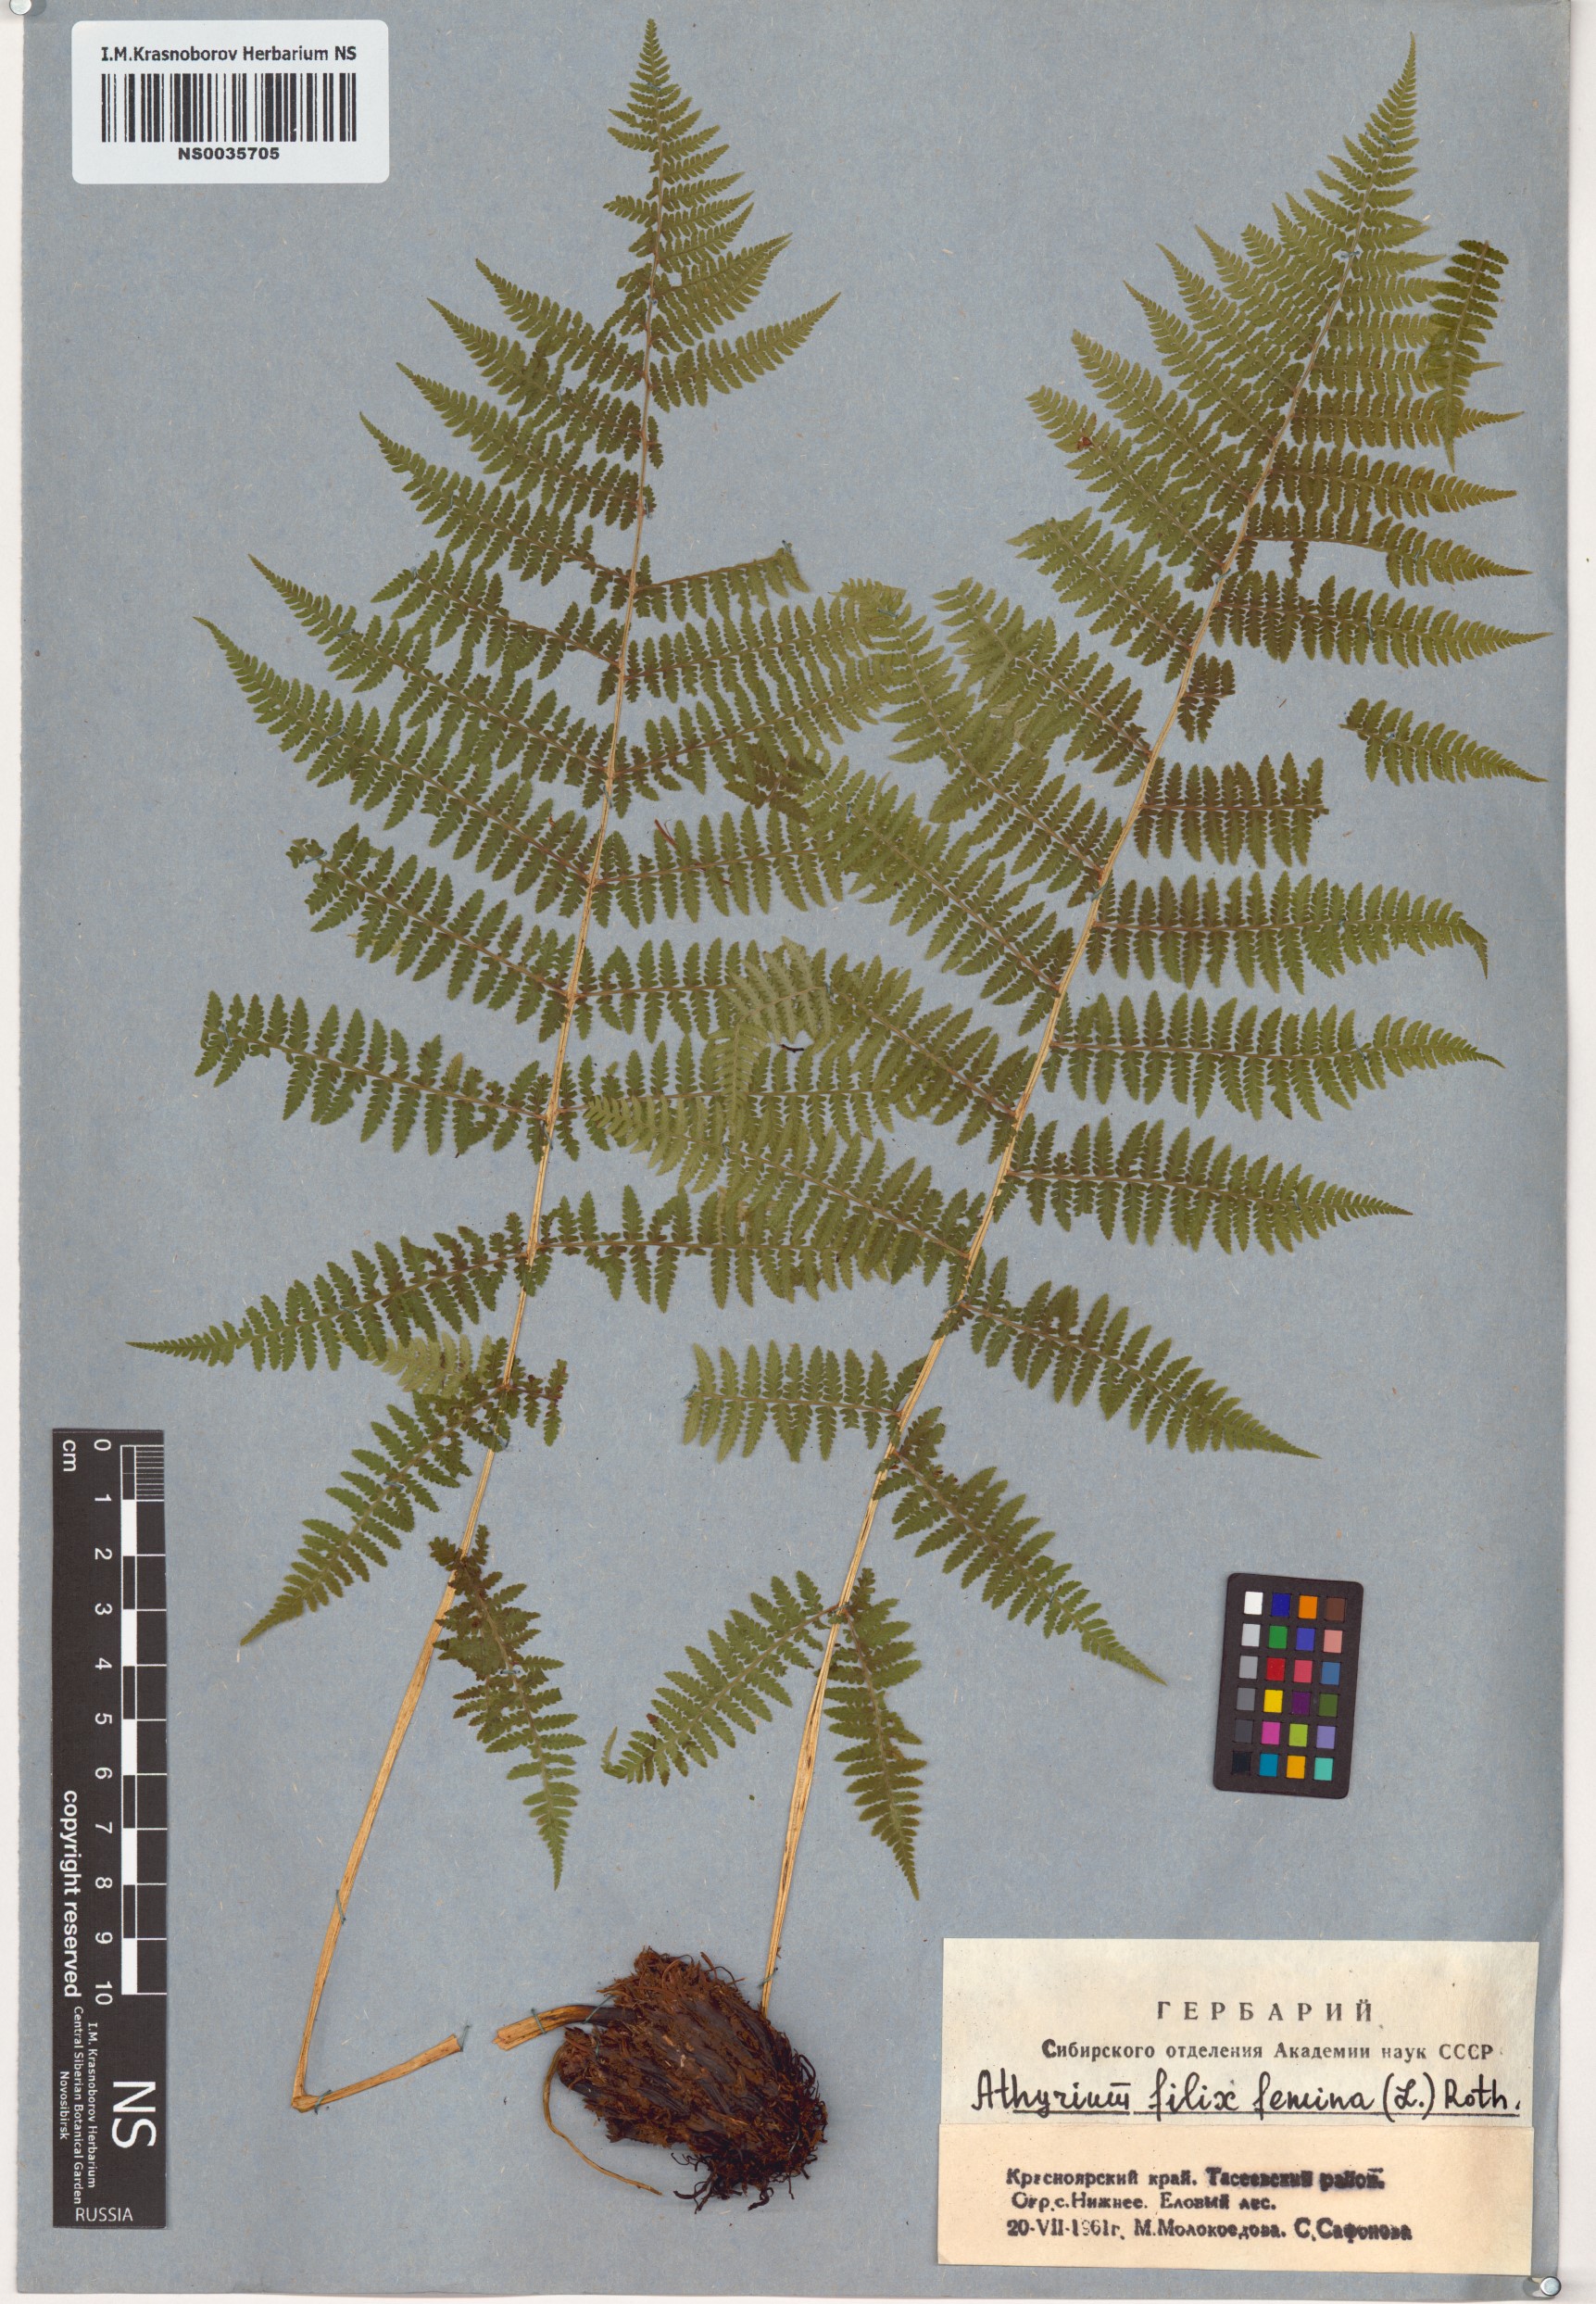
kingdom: Plantae
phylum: Tracheophyta
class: Polypodiopsida
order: Polypodiales
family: Athyriaceae
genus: Athyrium
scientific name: Athyrium filix-femina
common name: Lady fern
